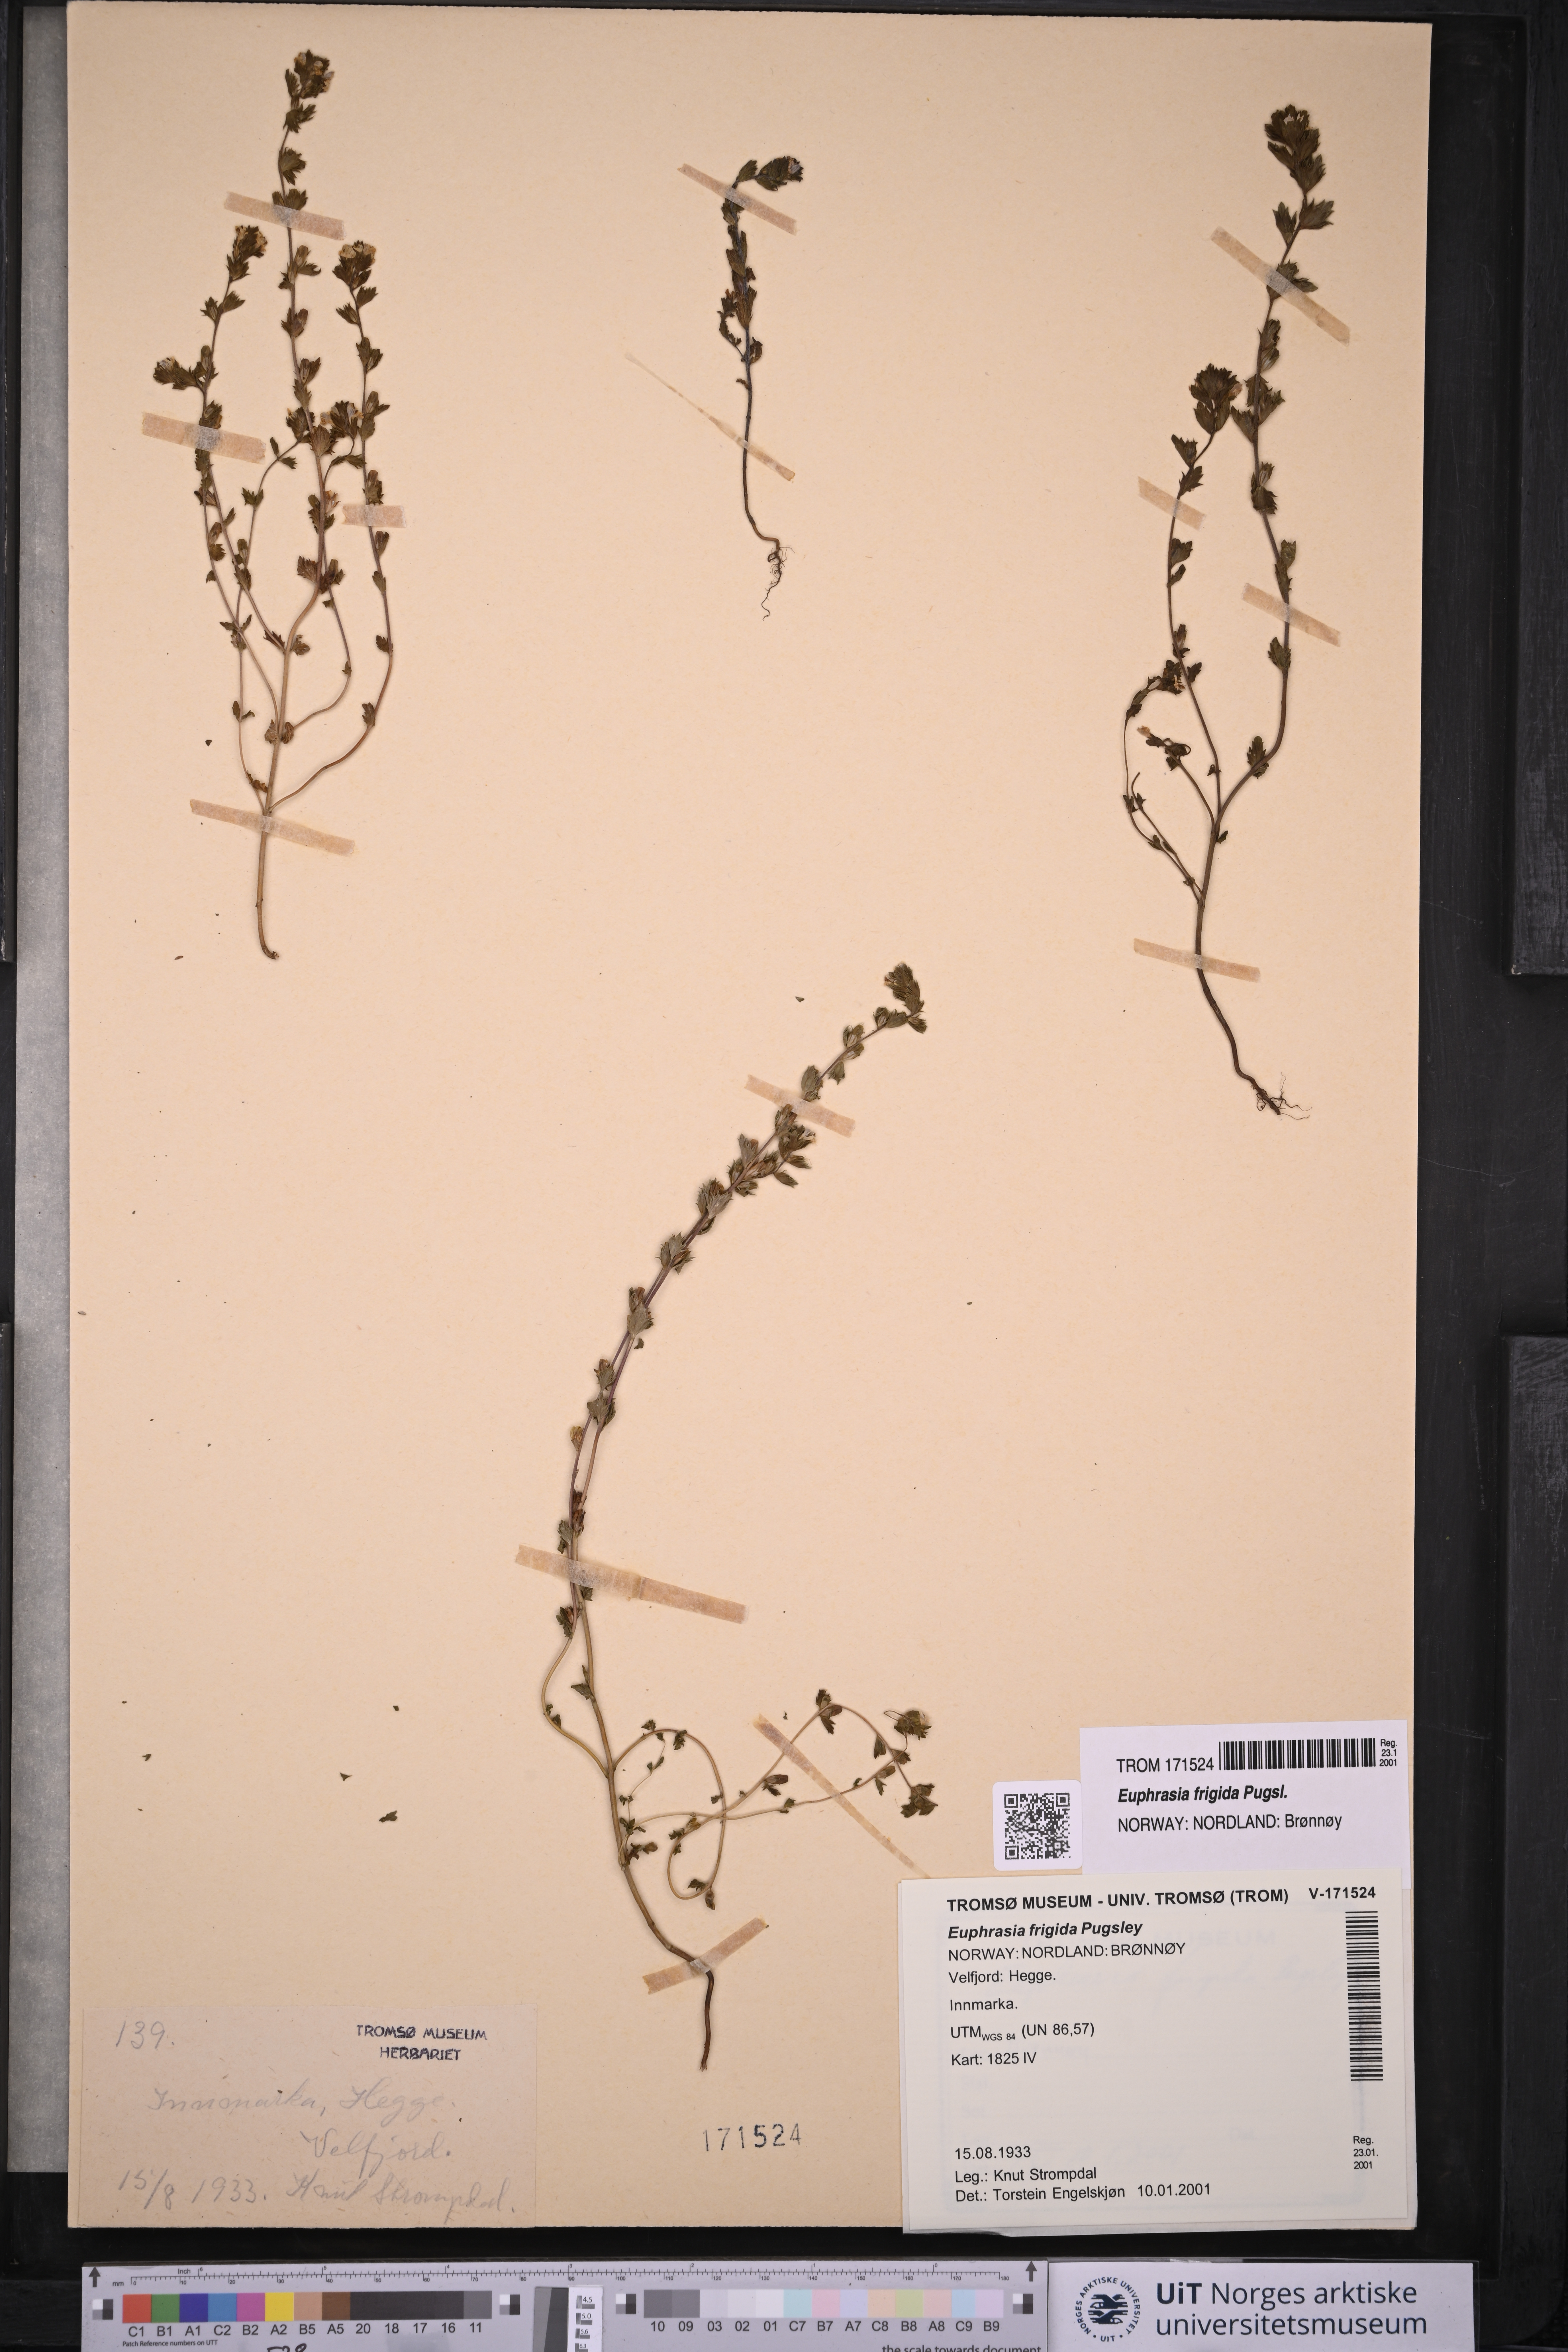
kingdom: Plantae
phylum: Tracheophyta
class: Magnoliopsida
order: Lamiales
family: Orobanchaceae
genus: Euphrasia
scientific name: Euphrasia frigida
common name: An eyebright
